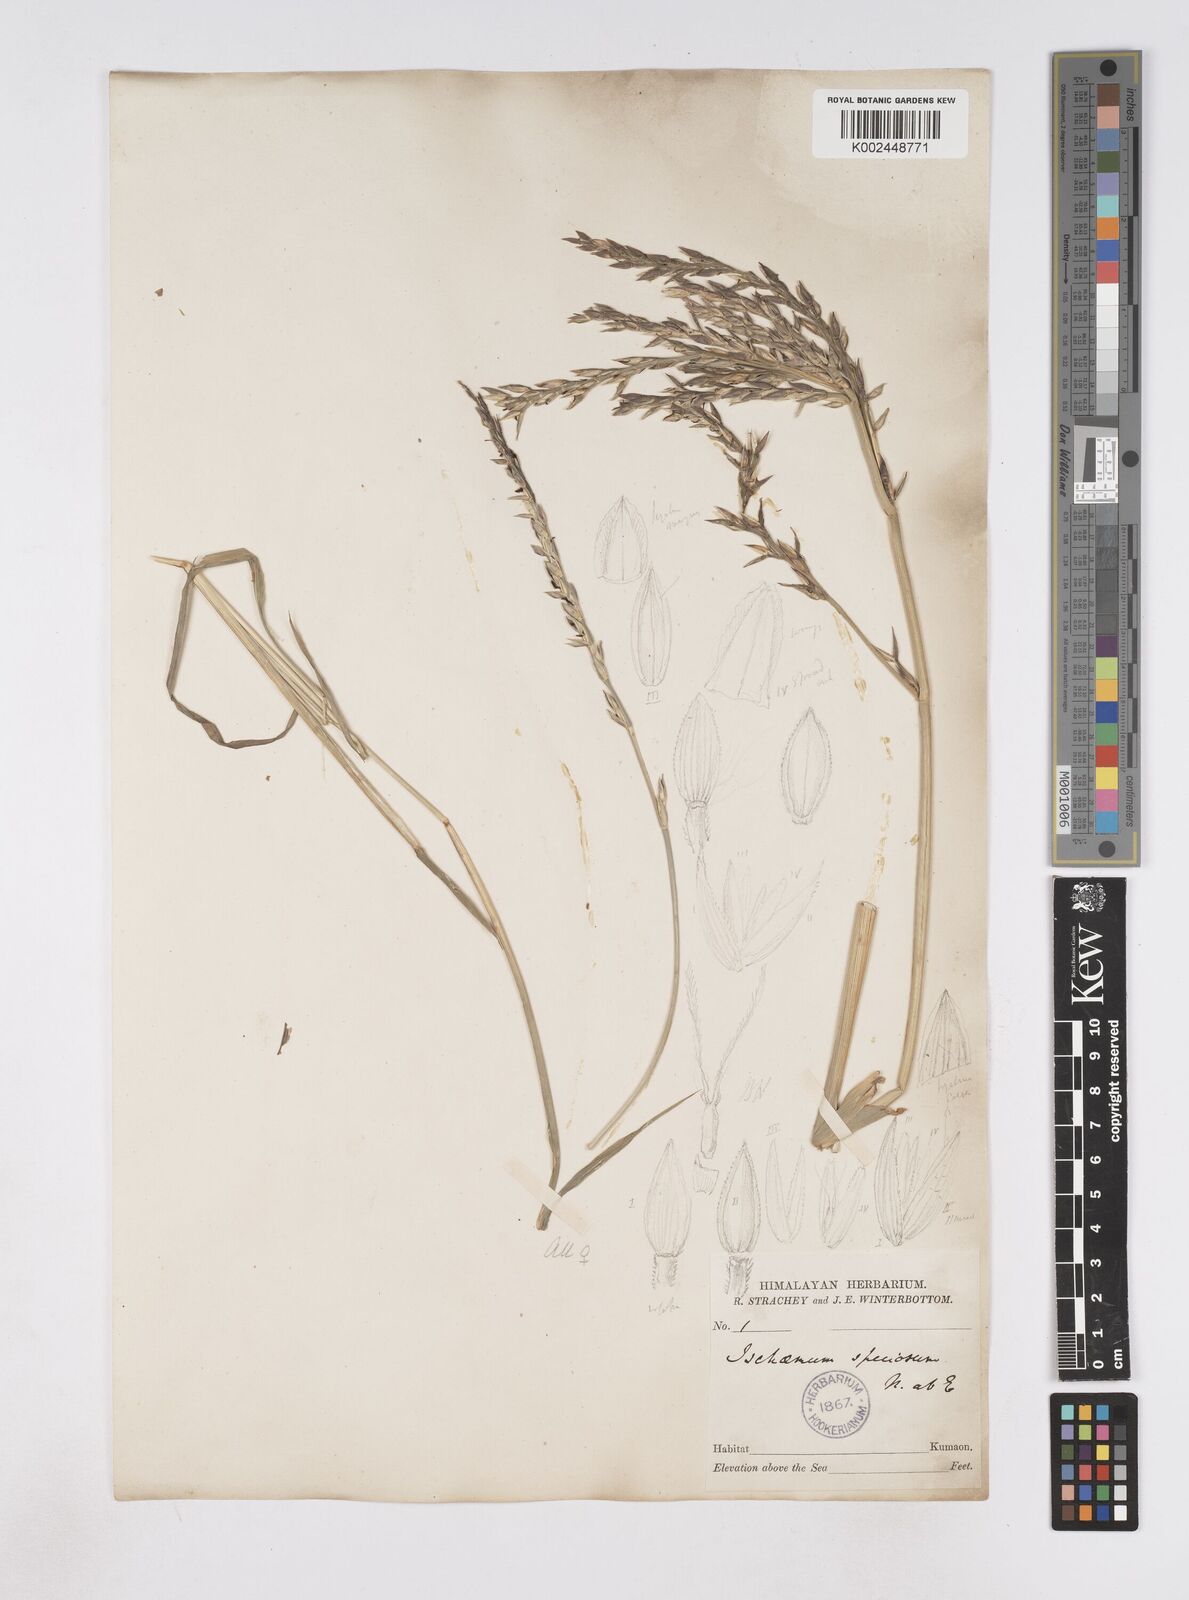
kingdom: Plantae
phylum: Tracheophyta
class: Liliopsida
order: Poales
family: Poaceae
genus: Phacelurus
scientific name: Phacelurus speciosus
